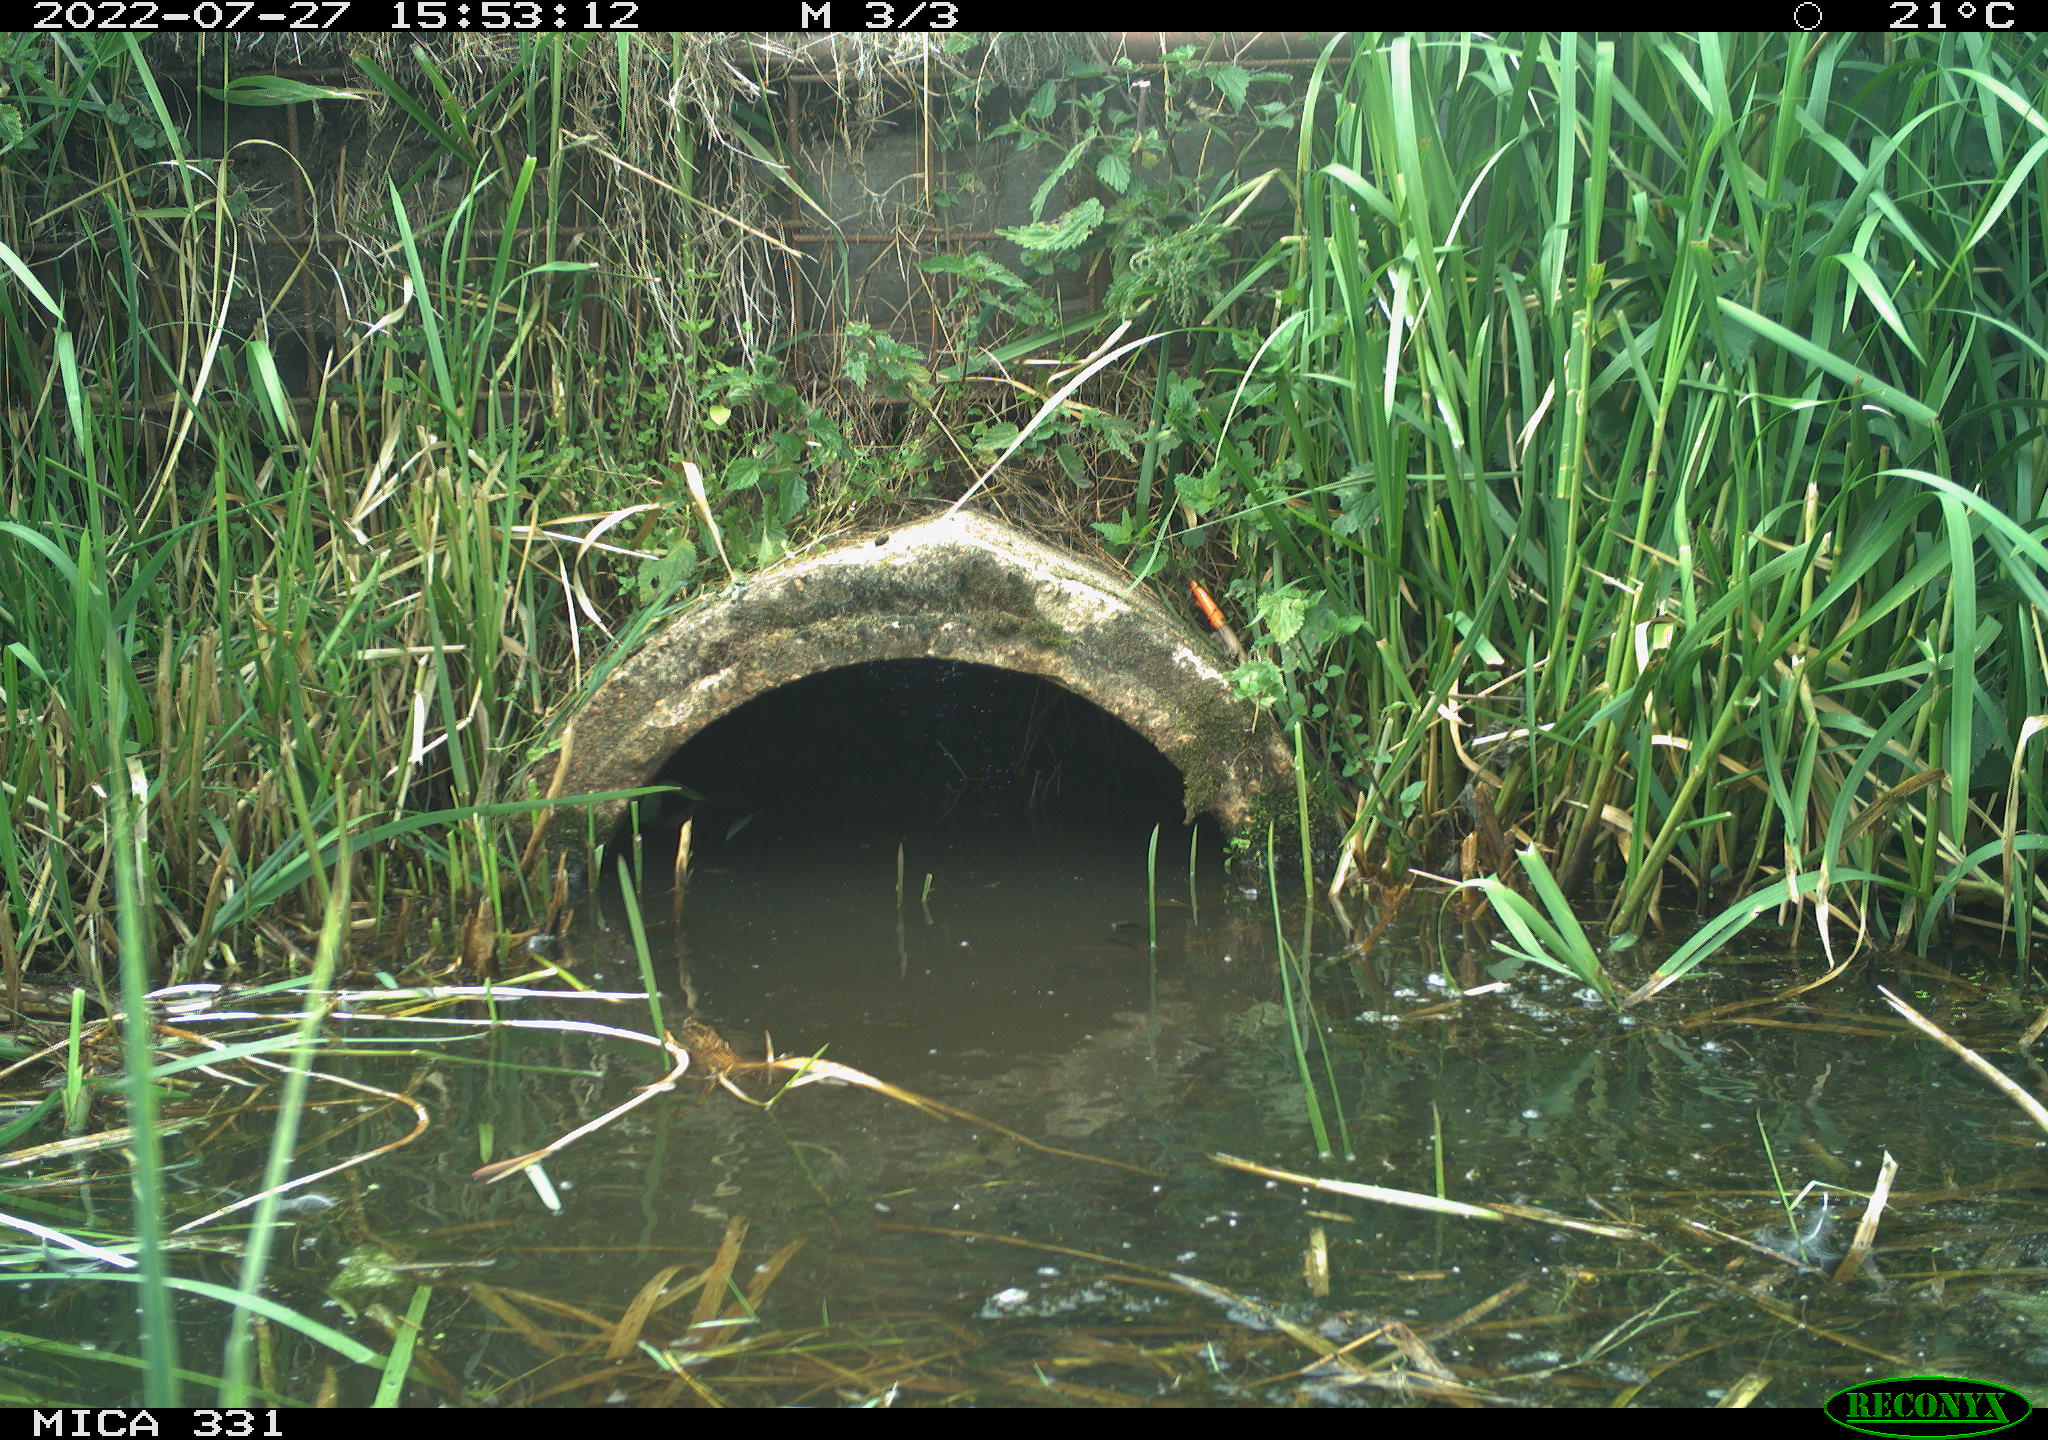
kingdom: Animalia
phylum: Chordata
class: Aves
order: Gruiformes
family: Rallidae
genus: Fulica
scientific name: Fulica atra
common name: Eurasian coot
